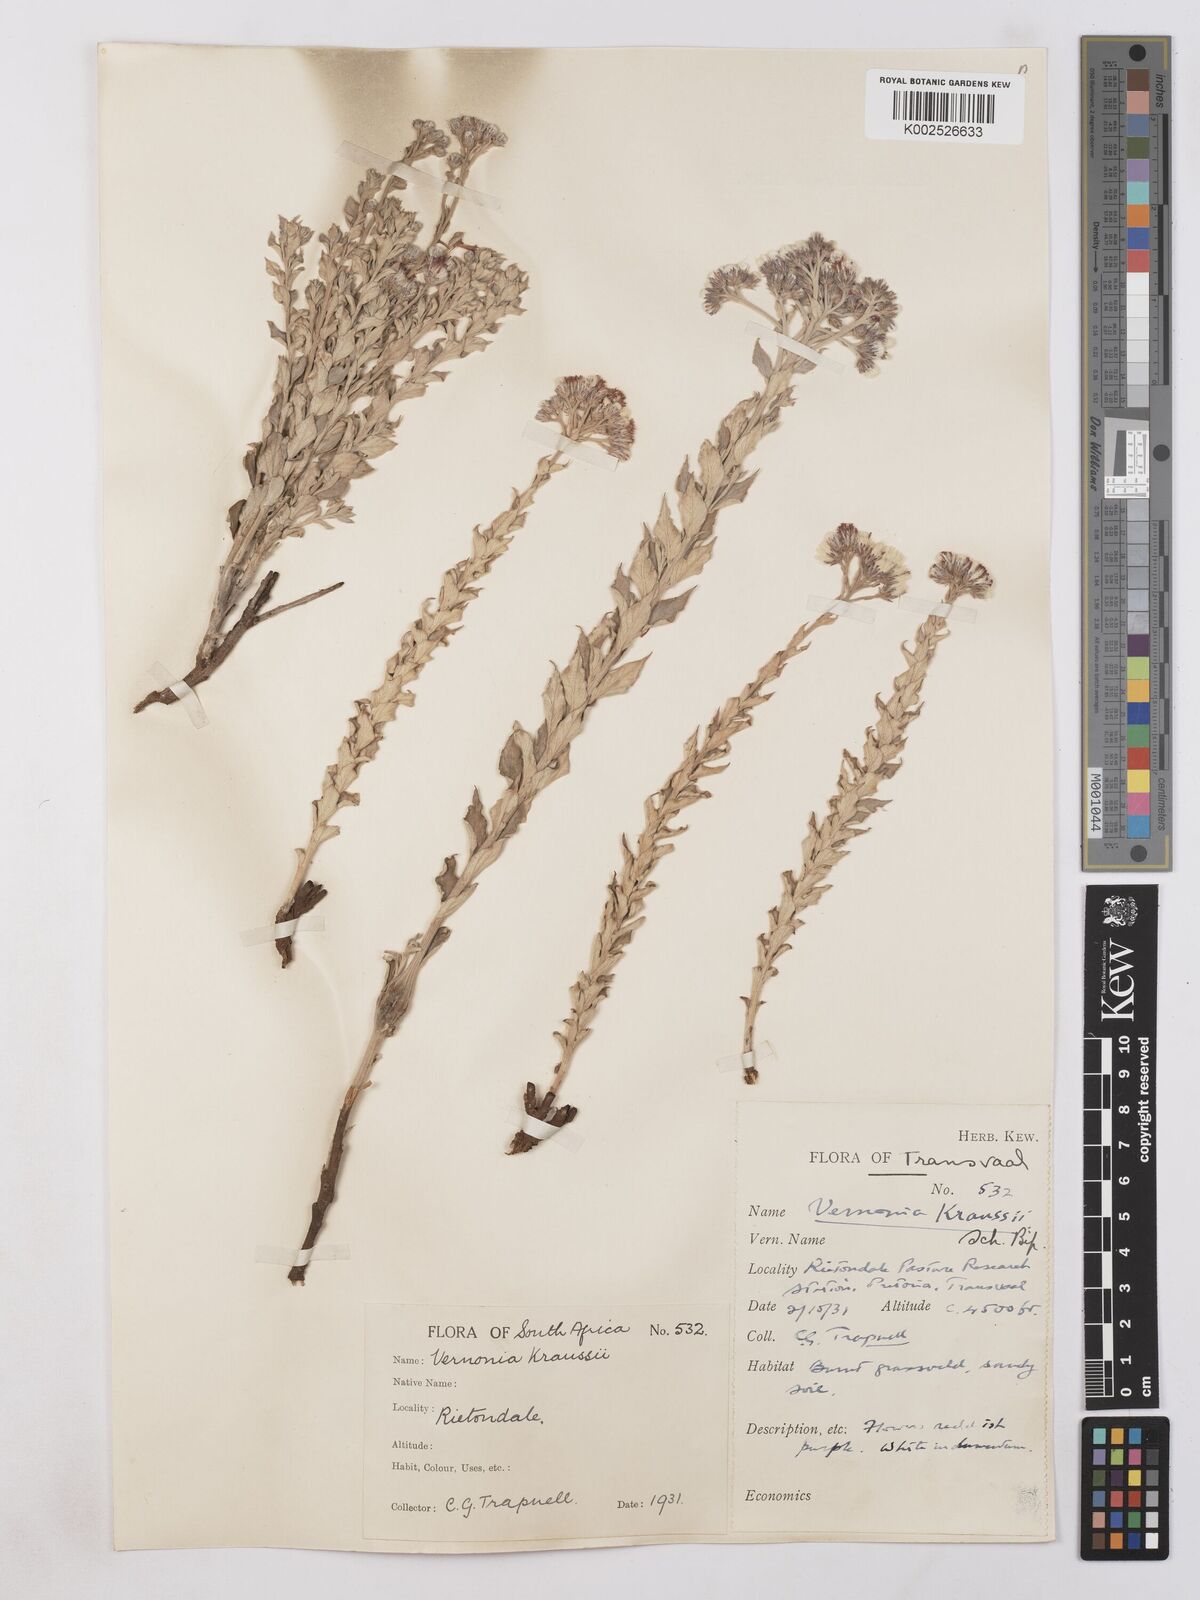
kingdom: Plantae
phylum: Tracheophyta
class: Magnoliopsida
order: Asterales
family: Asteraceae
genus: Hilliardiella
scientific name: Hilliardiella oligocephala
